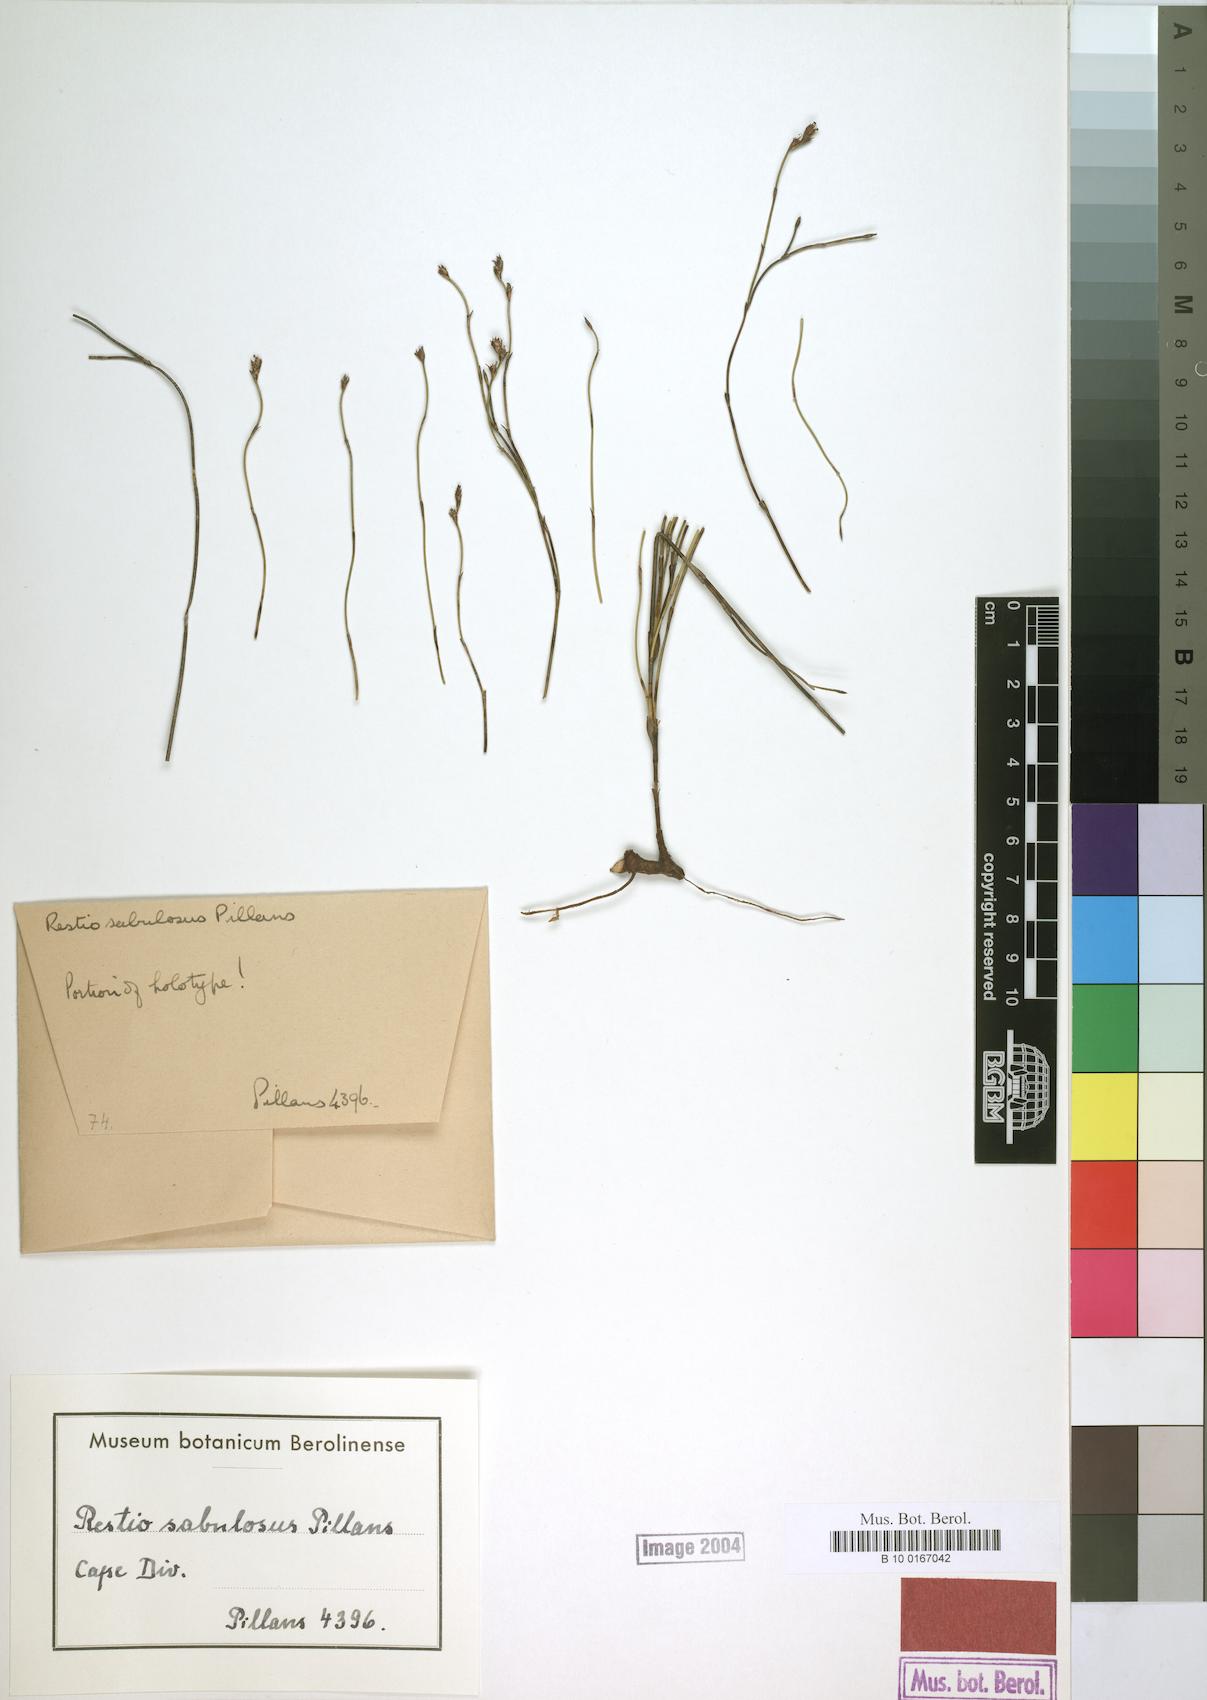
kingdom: Plantae
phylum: Tracheophyta
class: Liliopsida
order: Poales
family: Restionaceae
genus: Restio
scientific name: Restio sabulosus
